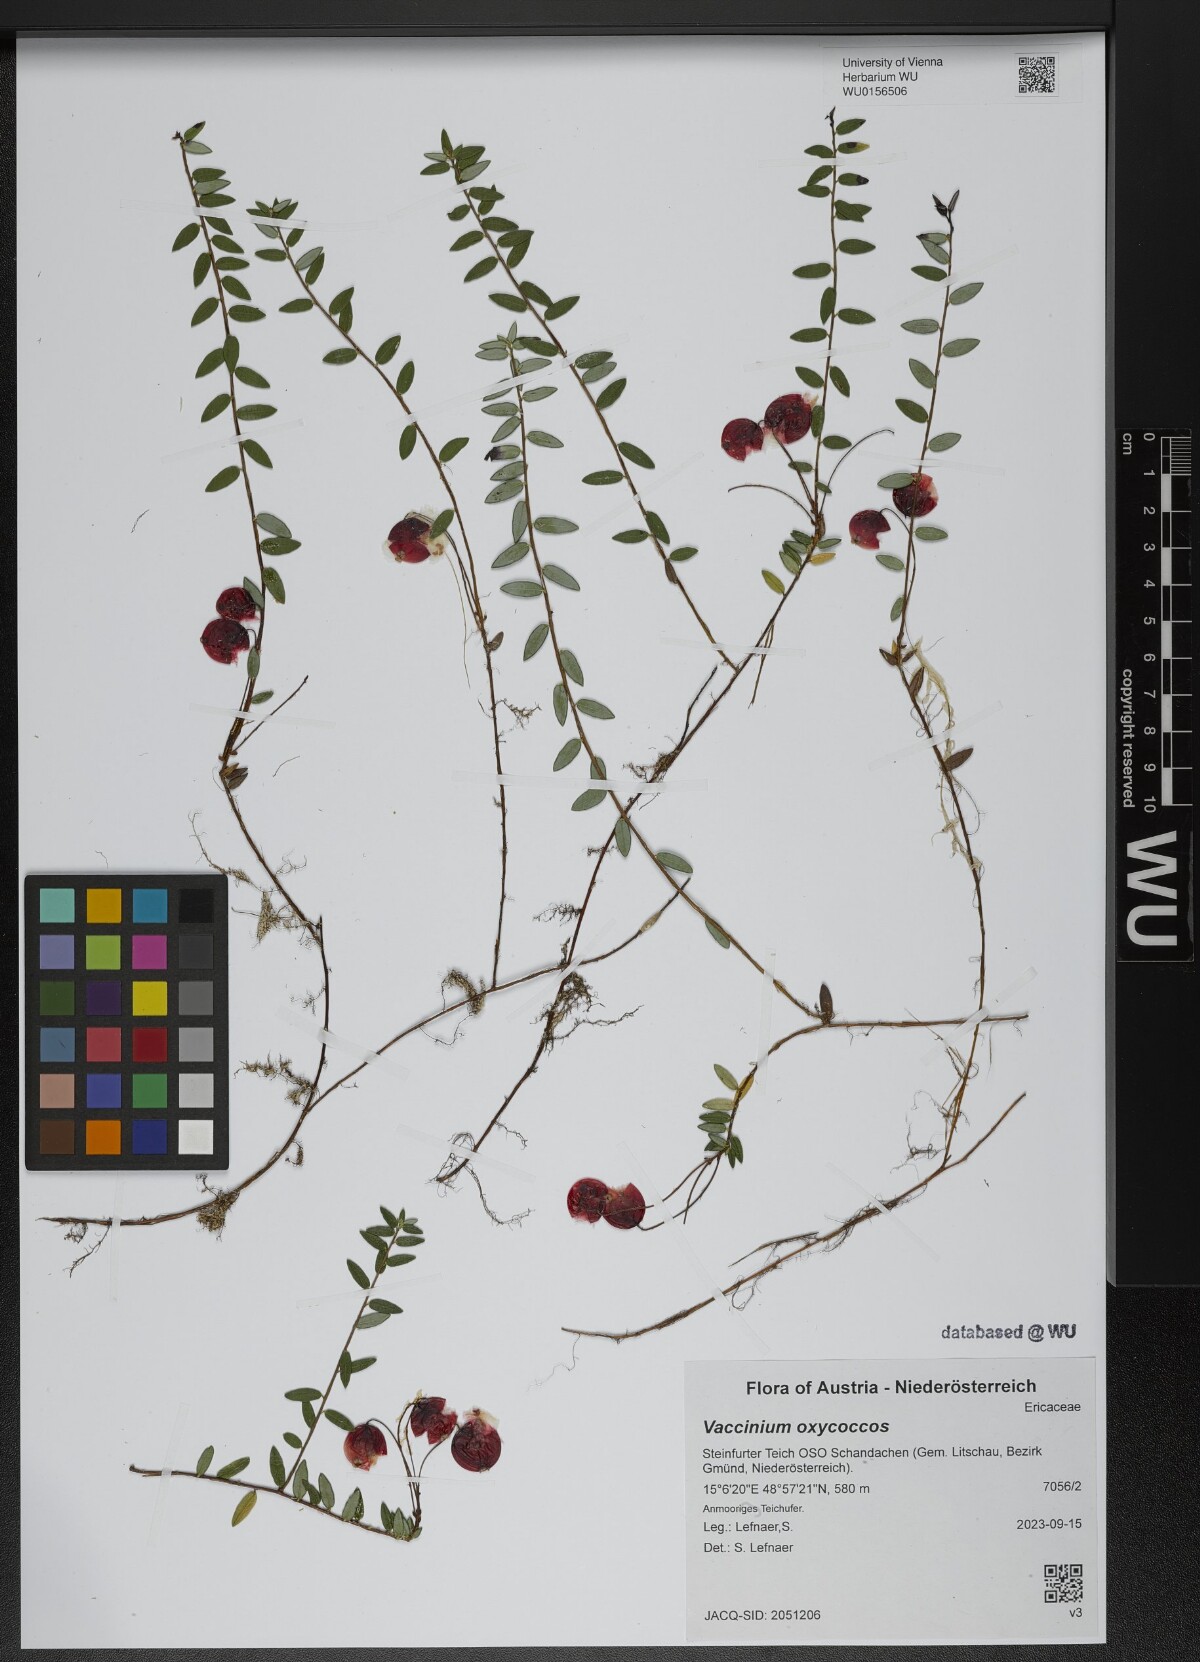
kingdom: Plantae
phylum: Tracheophyta
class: Magnoliopsida
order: Ericales
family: Ericaceae
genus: Vaccinium
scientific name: Vaccinium oxycoccos
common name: Cranberry
